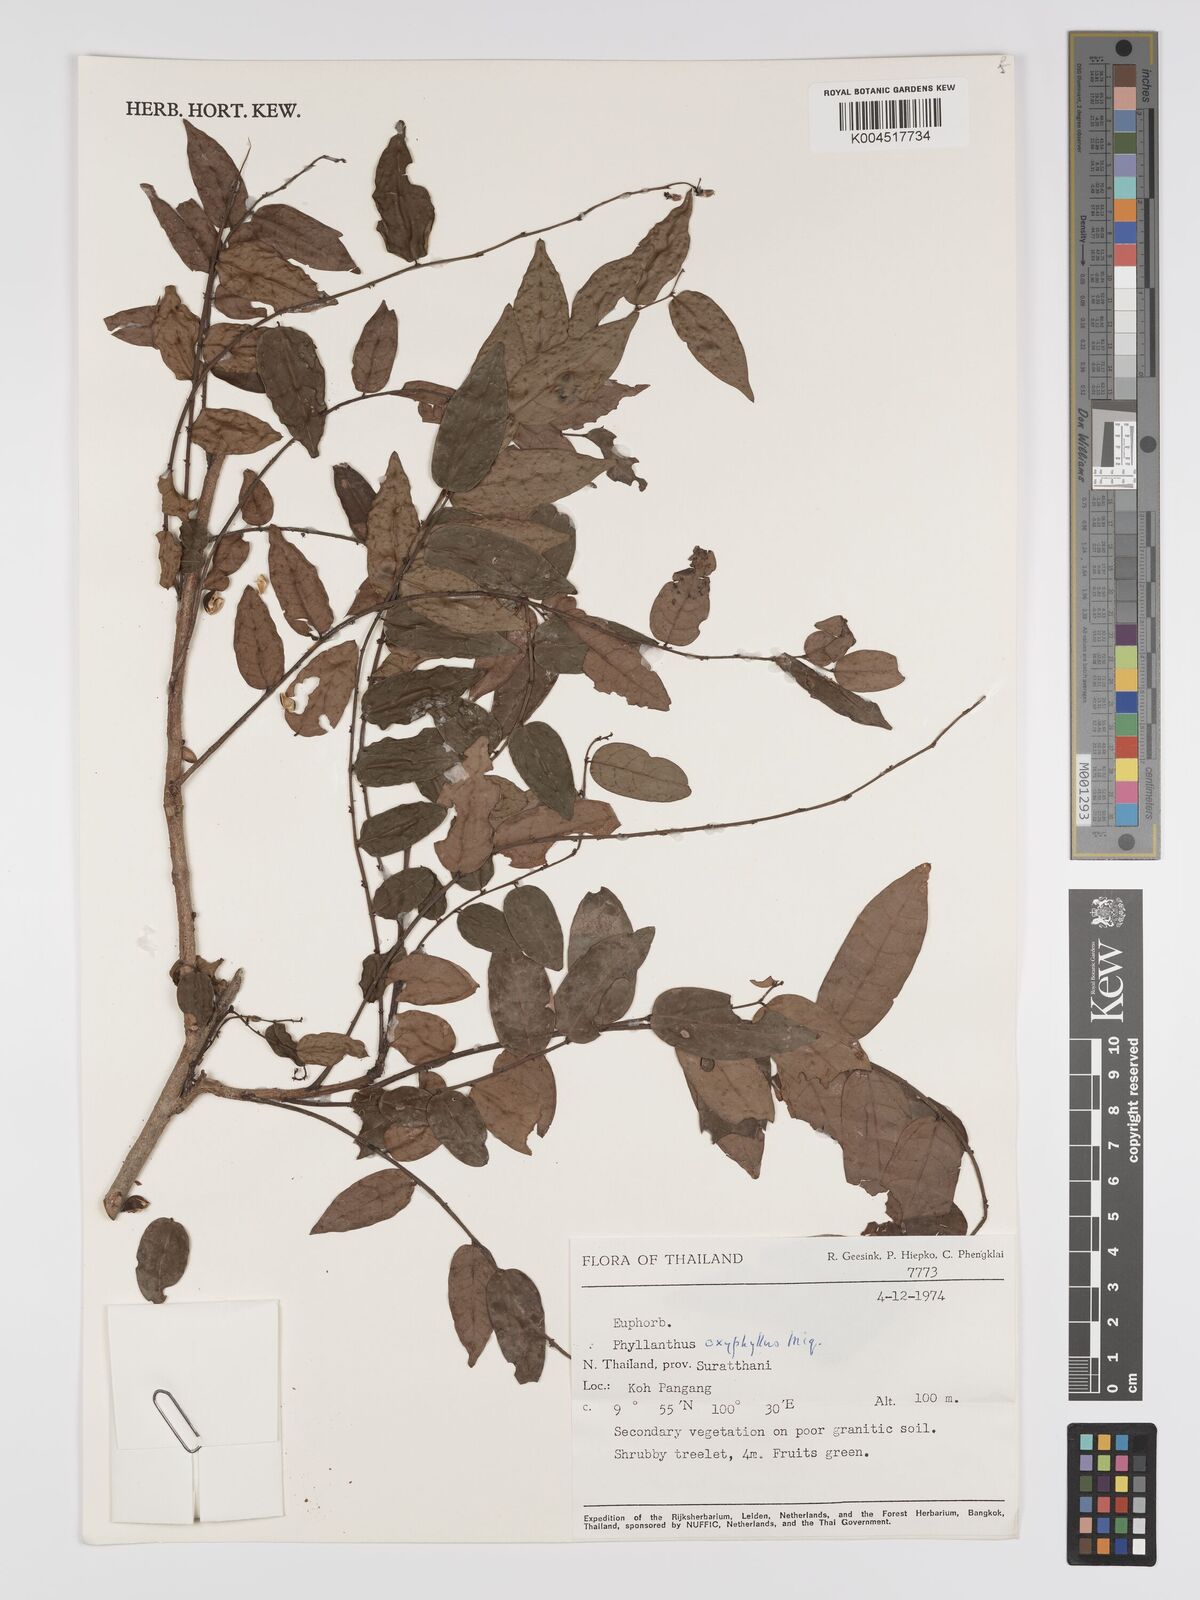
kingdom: Plantae
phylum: Tracheophyta
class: Magnoliopsida
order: Malpighiales
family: Phyllanthaceae
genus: Phyllanthus
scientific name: Phyllanthus
